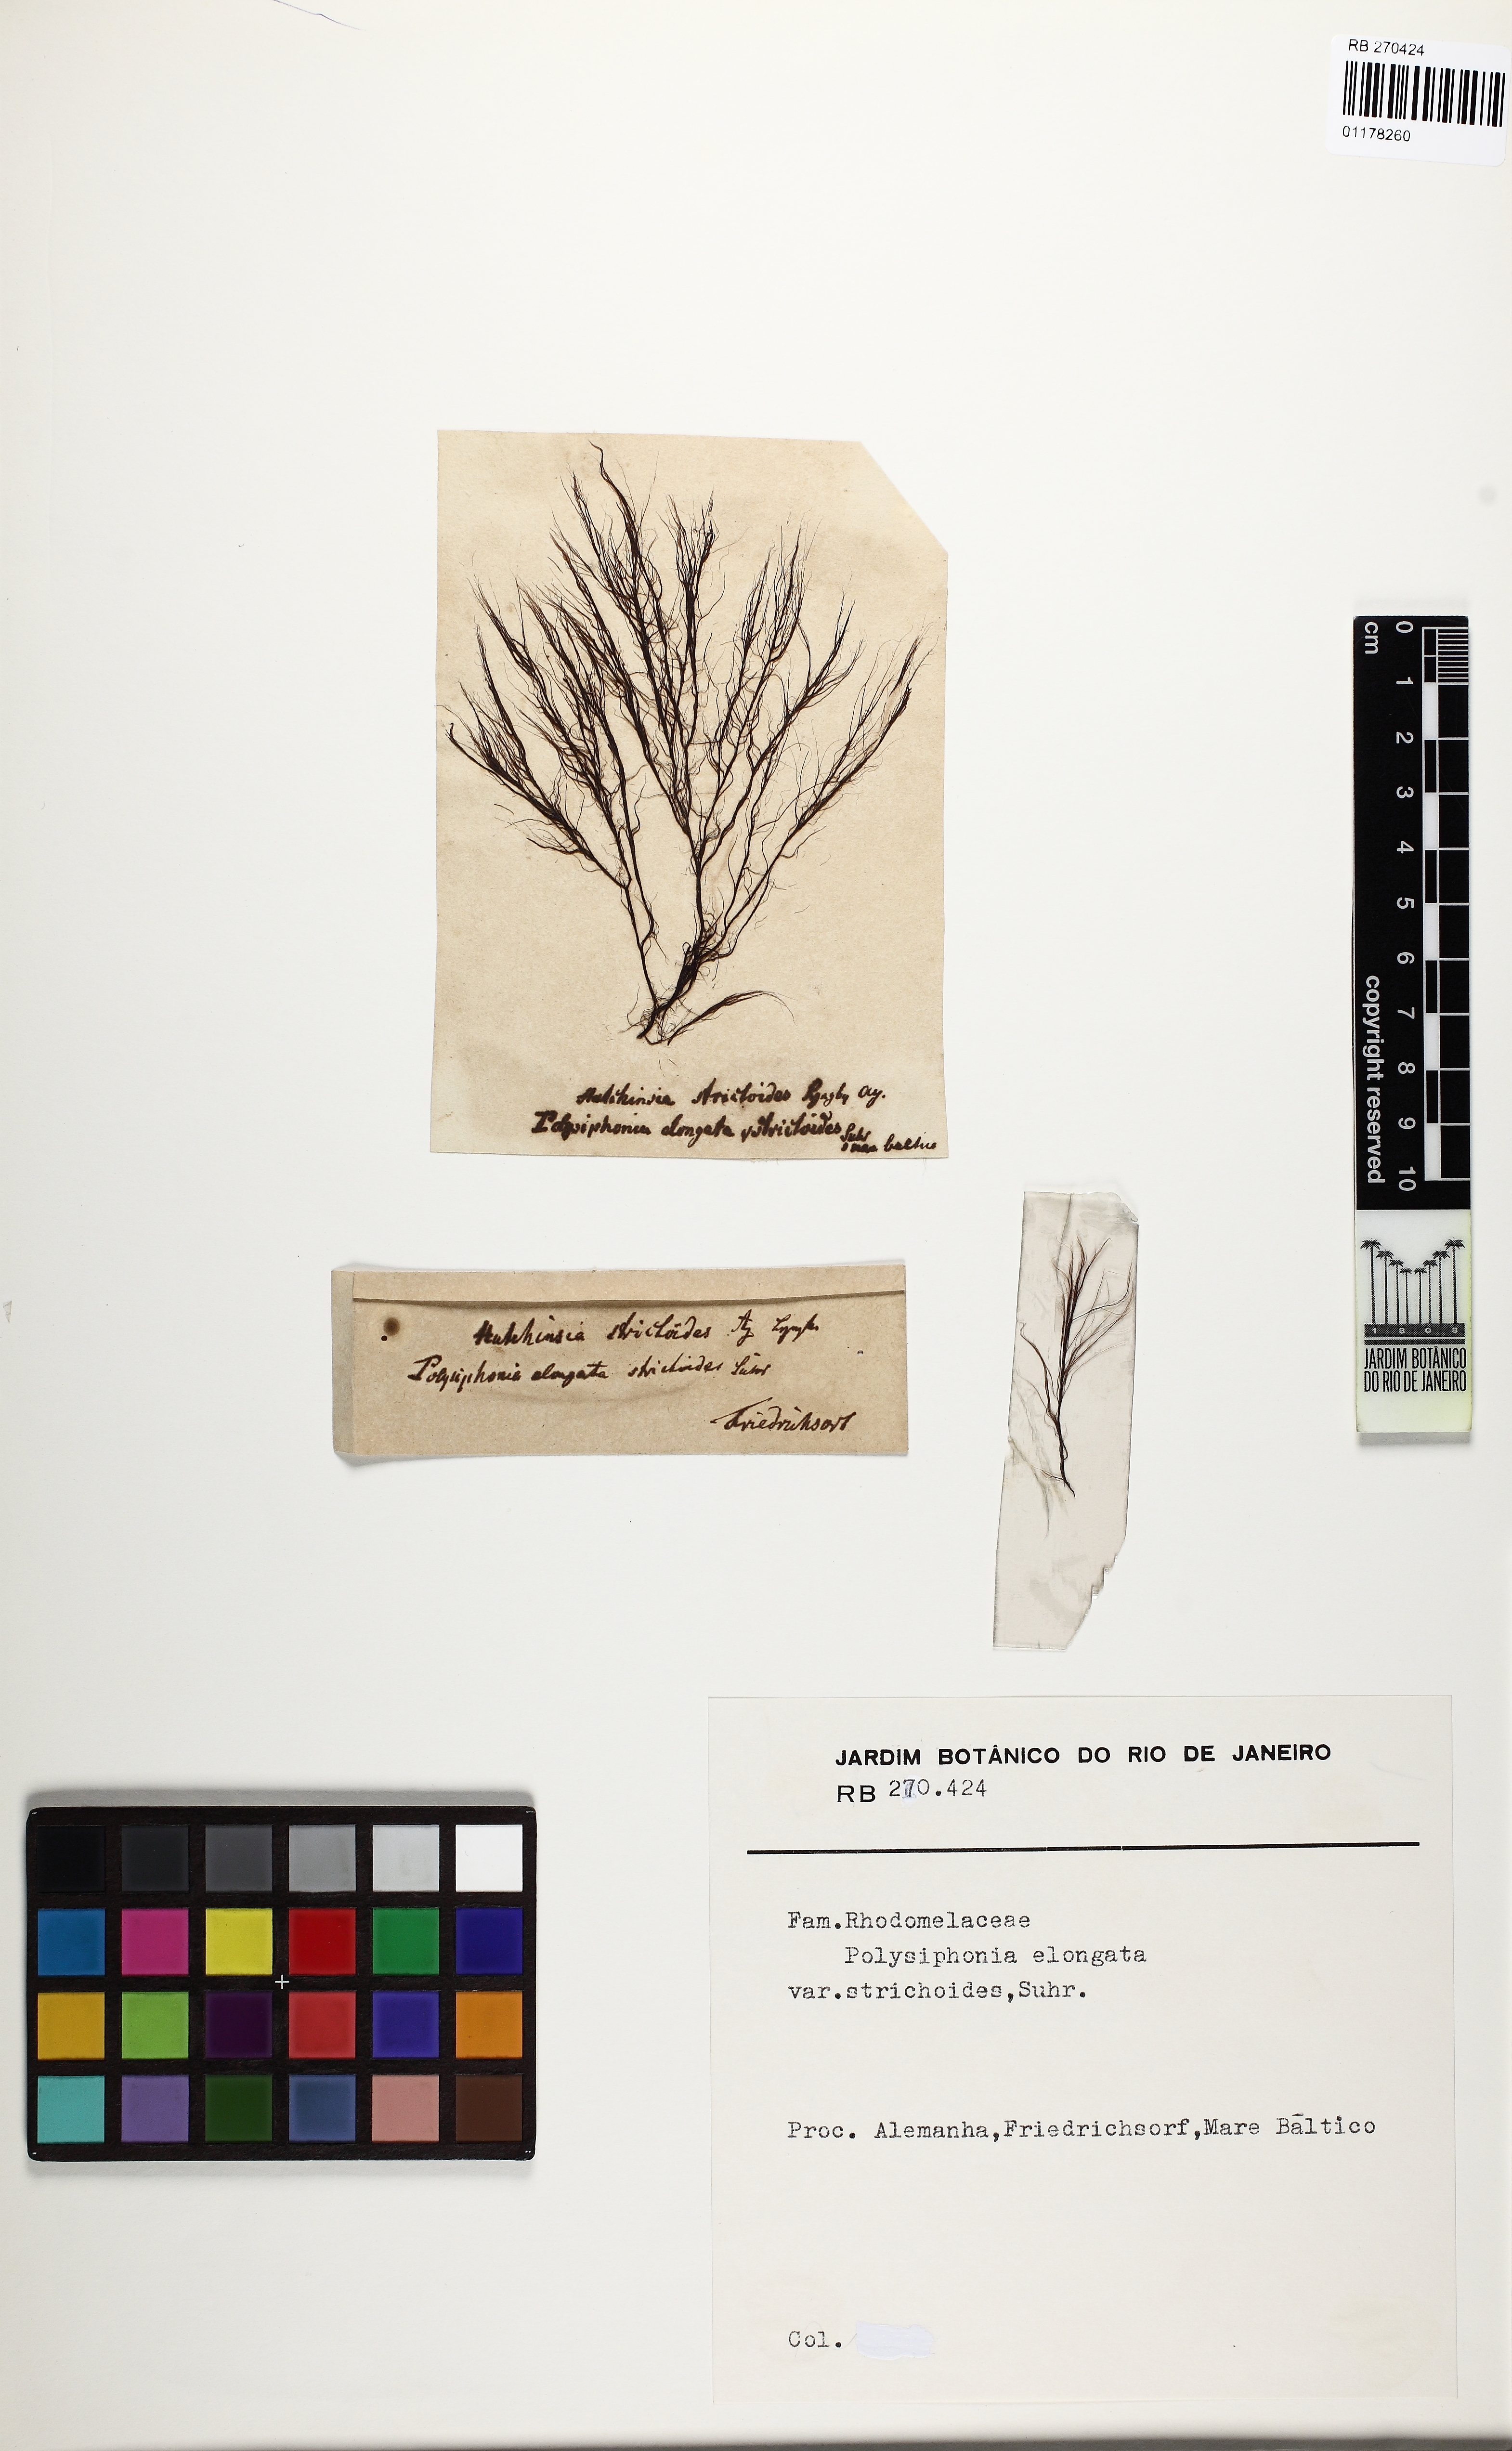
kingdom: Plantae
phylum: Rhodophyta
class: Florideophyceae
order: Ceramiales
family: Rhodomelaceae
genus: Vertebrata
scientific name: Vertebrata spec
